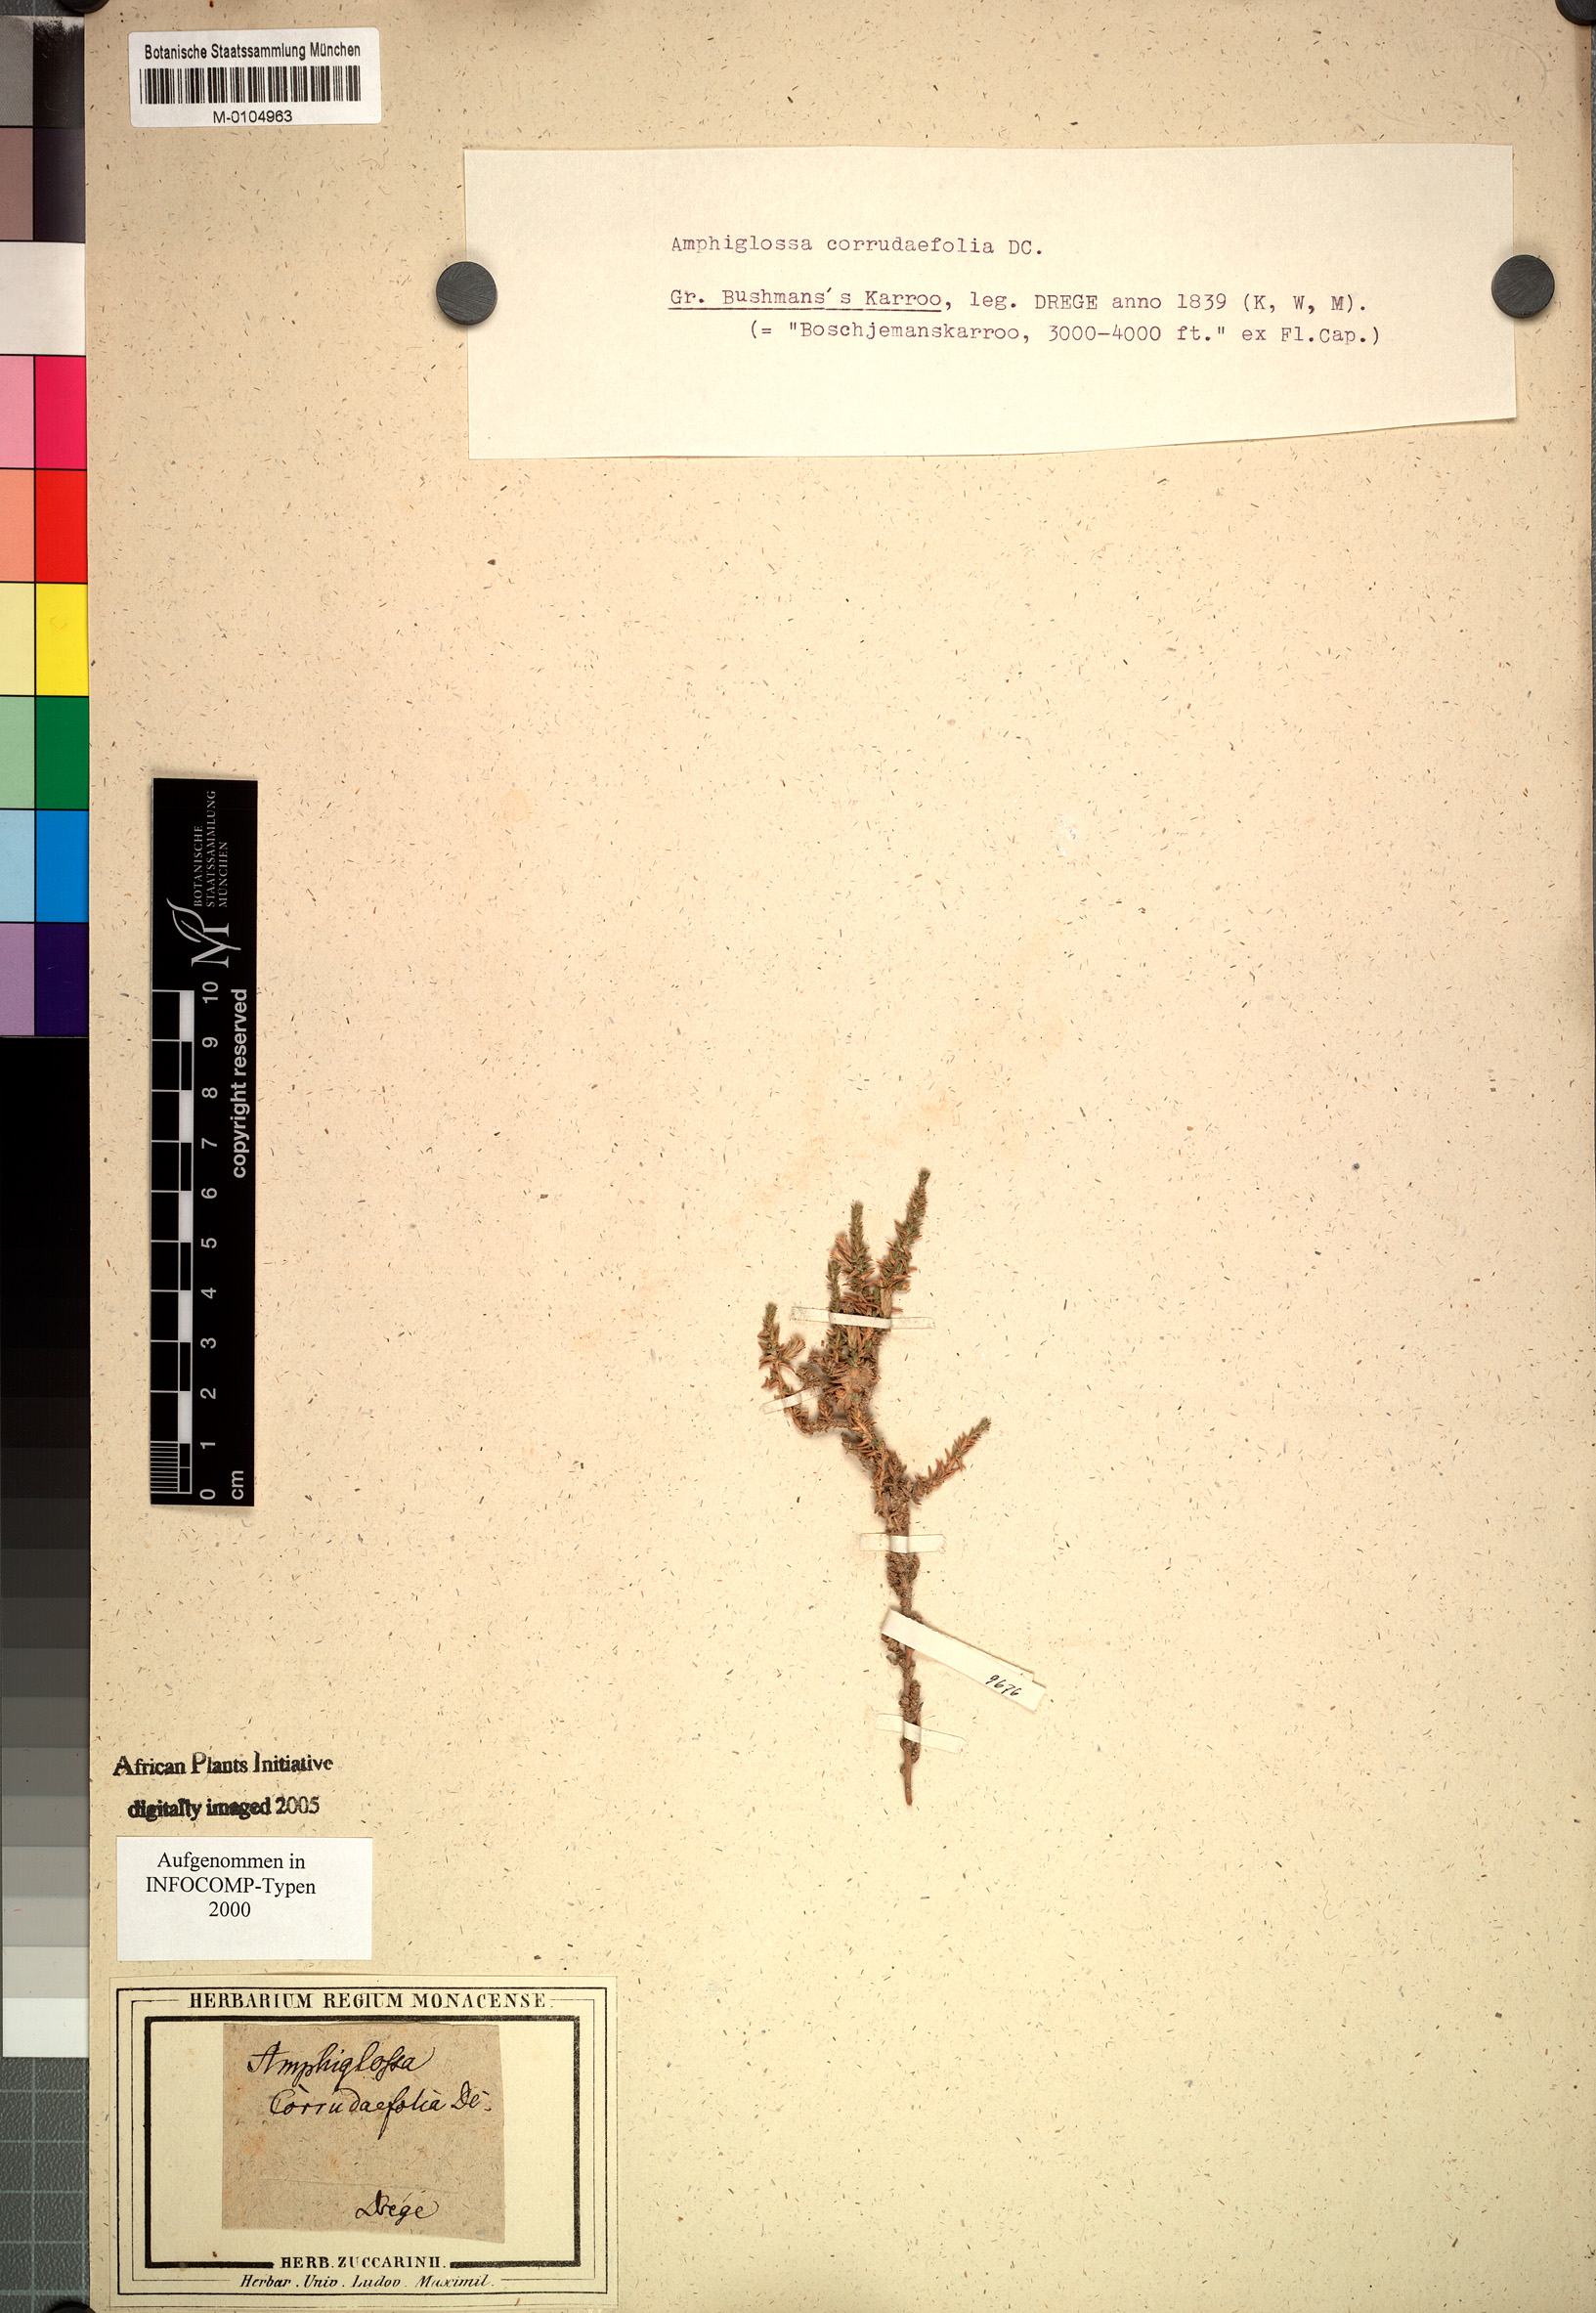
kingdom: Plantae
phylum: Tracheophyta
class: Magnoliopsida
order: Asterales
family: Asteraceae
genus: Amphiglossa
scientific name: Amphiglossa corrudifolia
